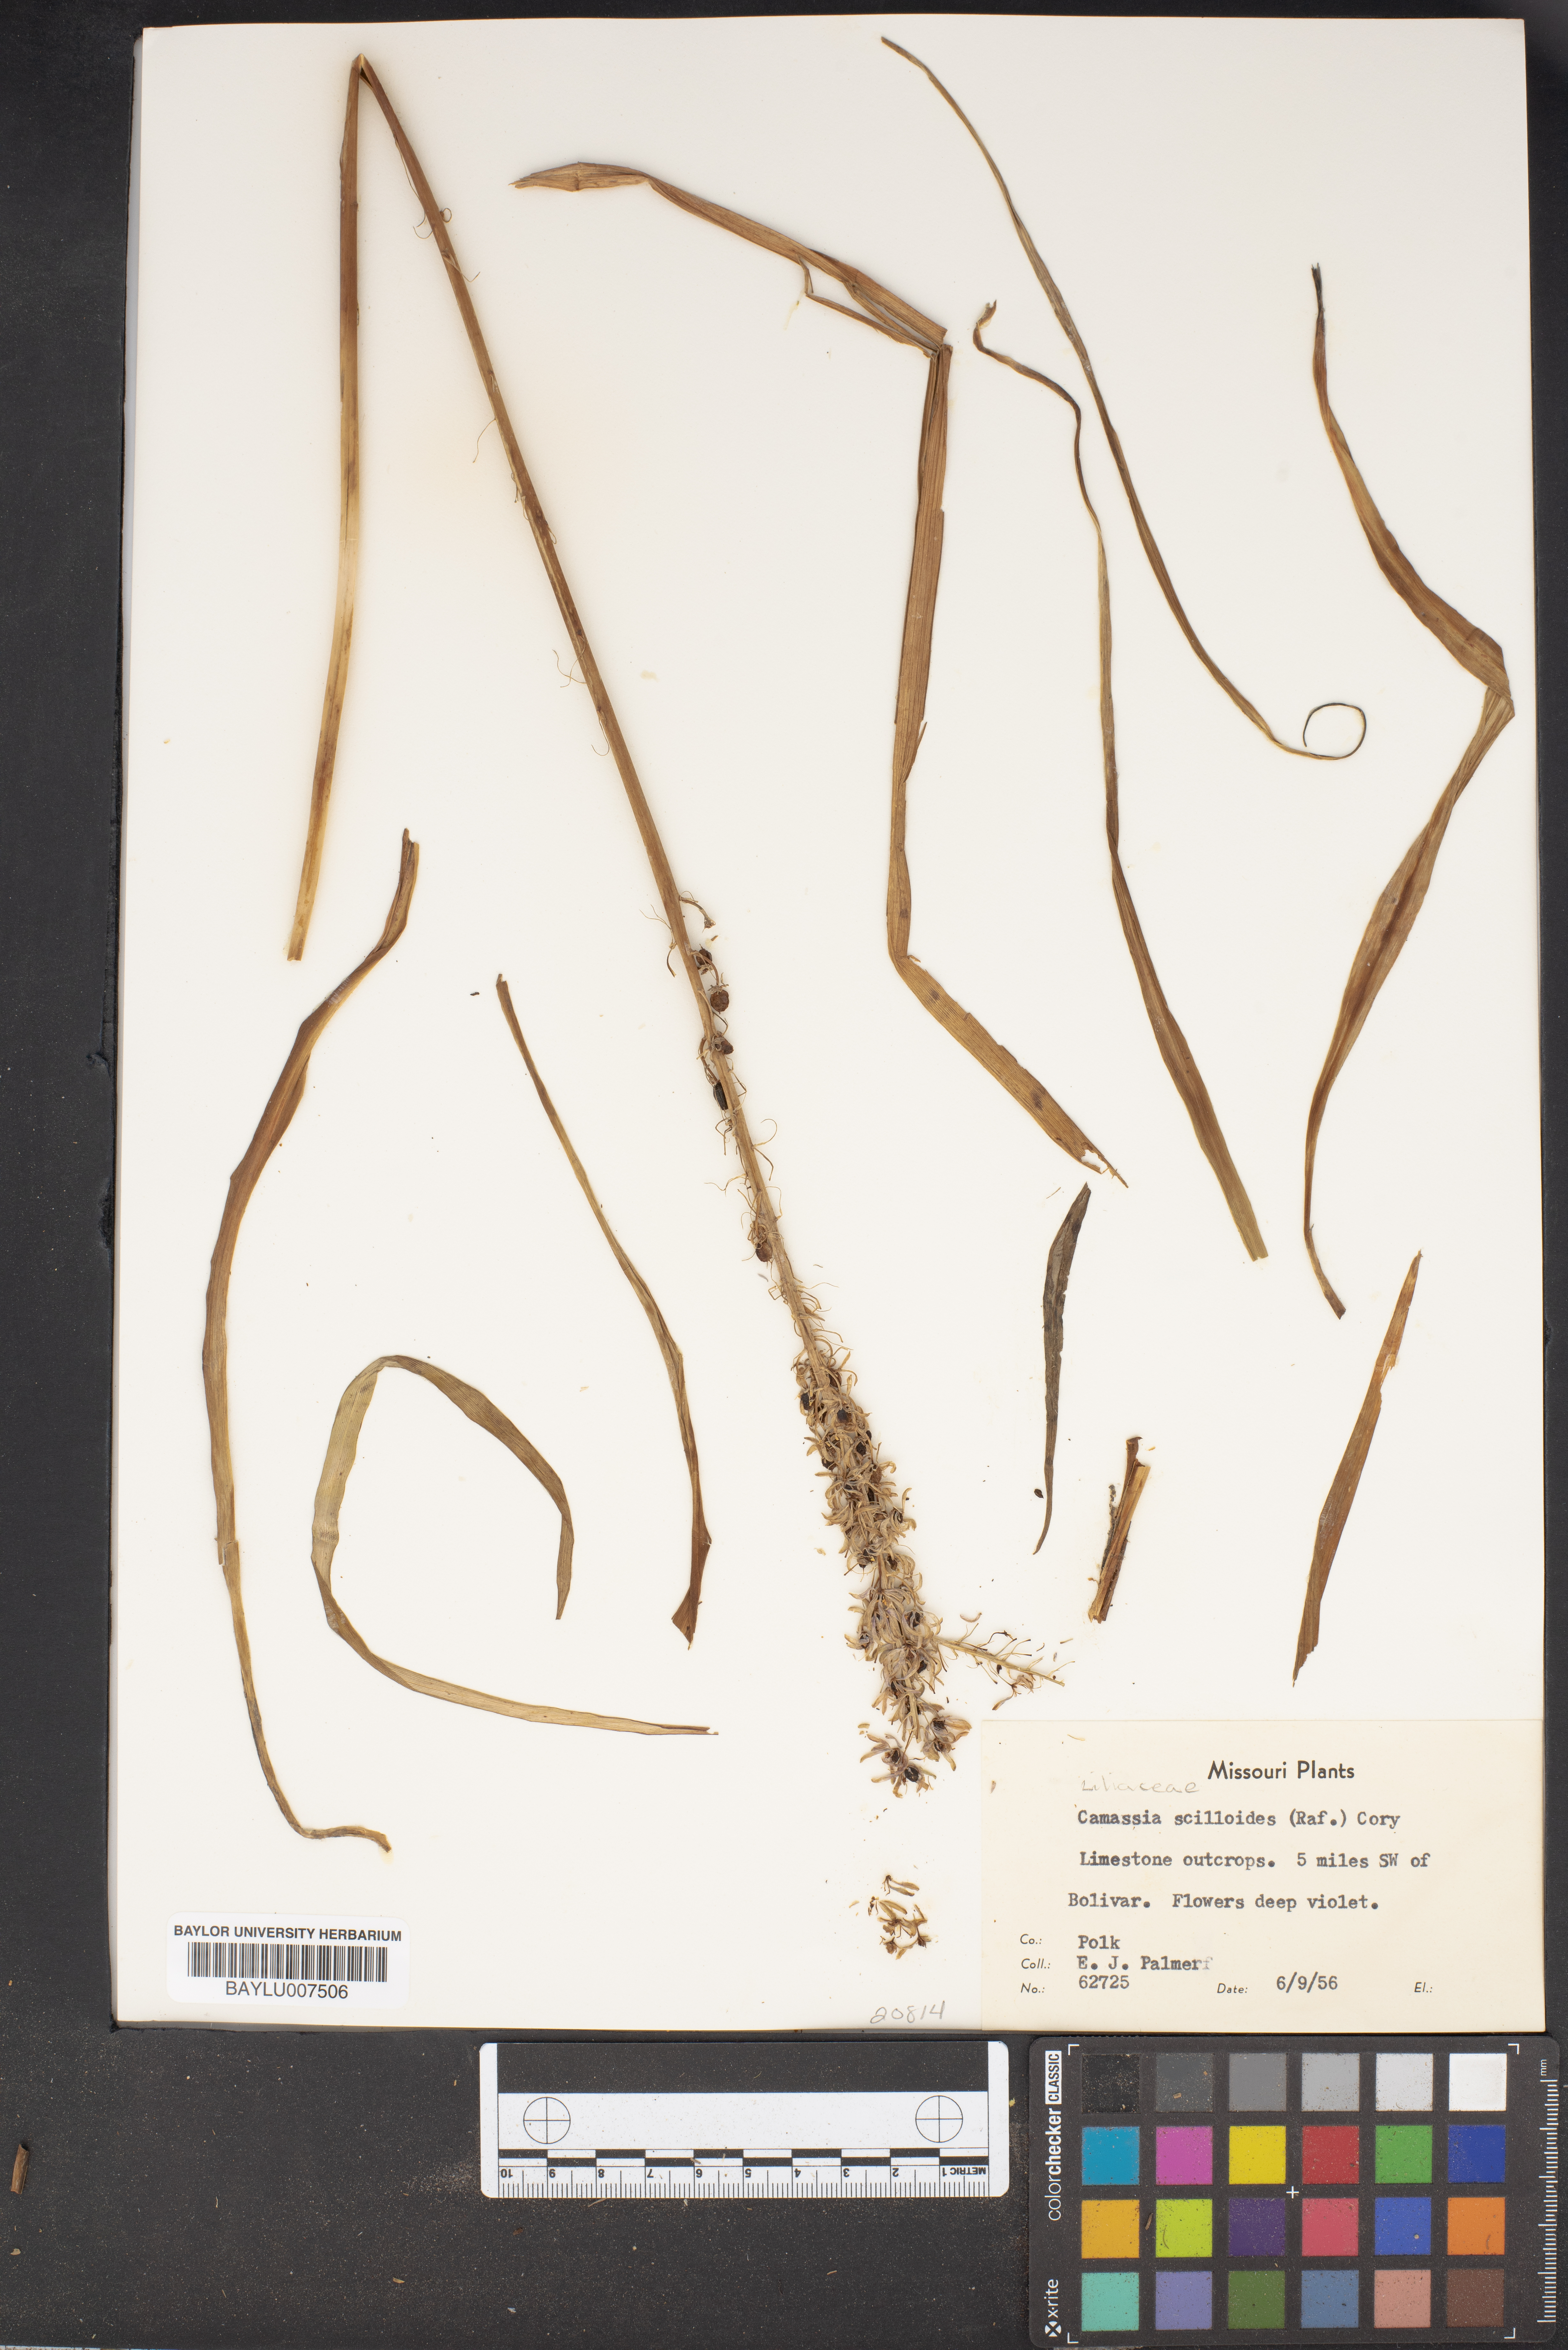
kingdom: Plantae
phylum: Tracheophyta
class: Liliopsida
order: Asparagales
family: Asparagaceae
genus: Camassia
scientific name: Camassia scilloides
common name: Wild hyacinth
